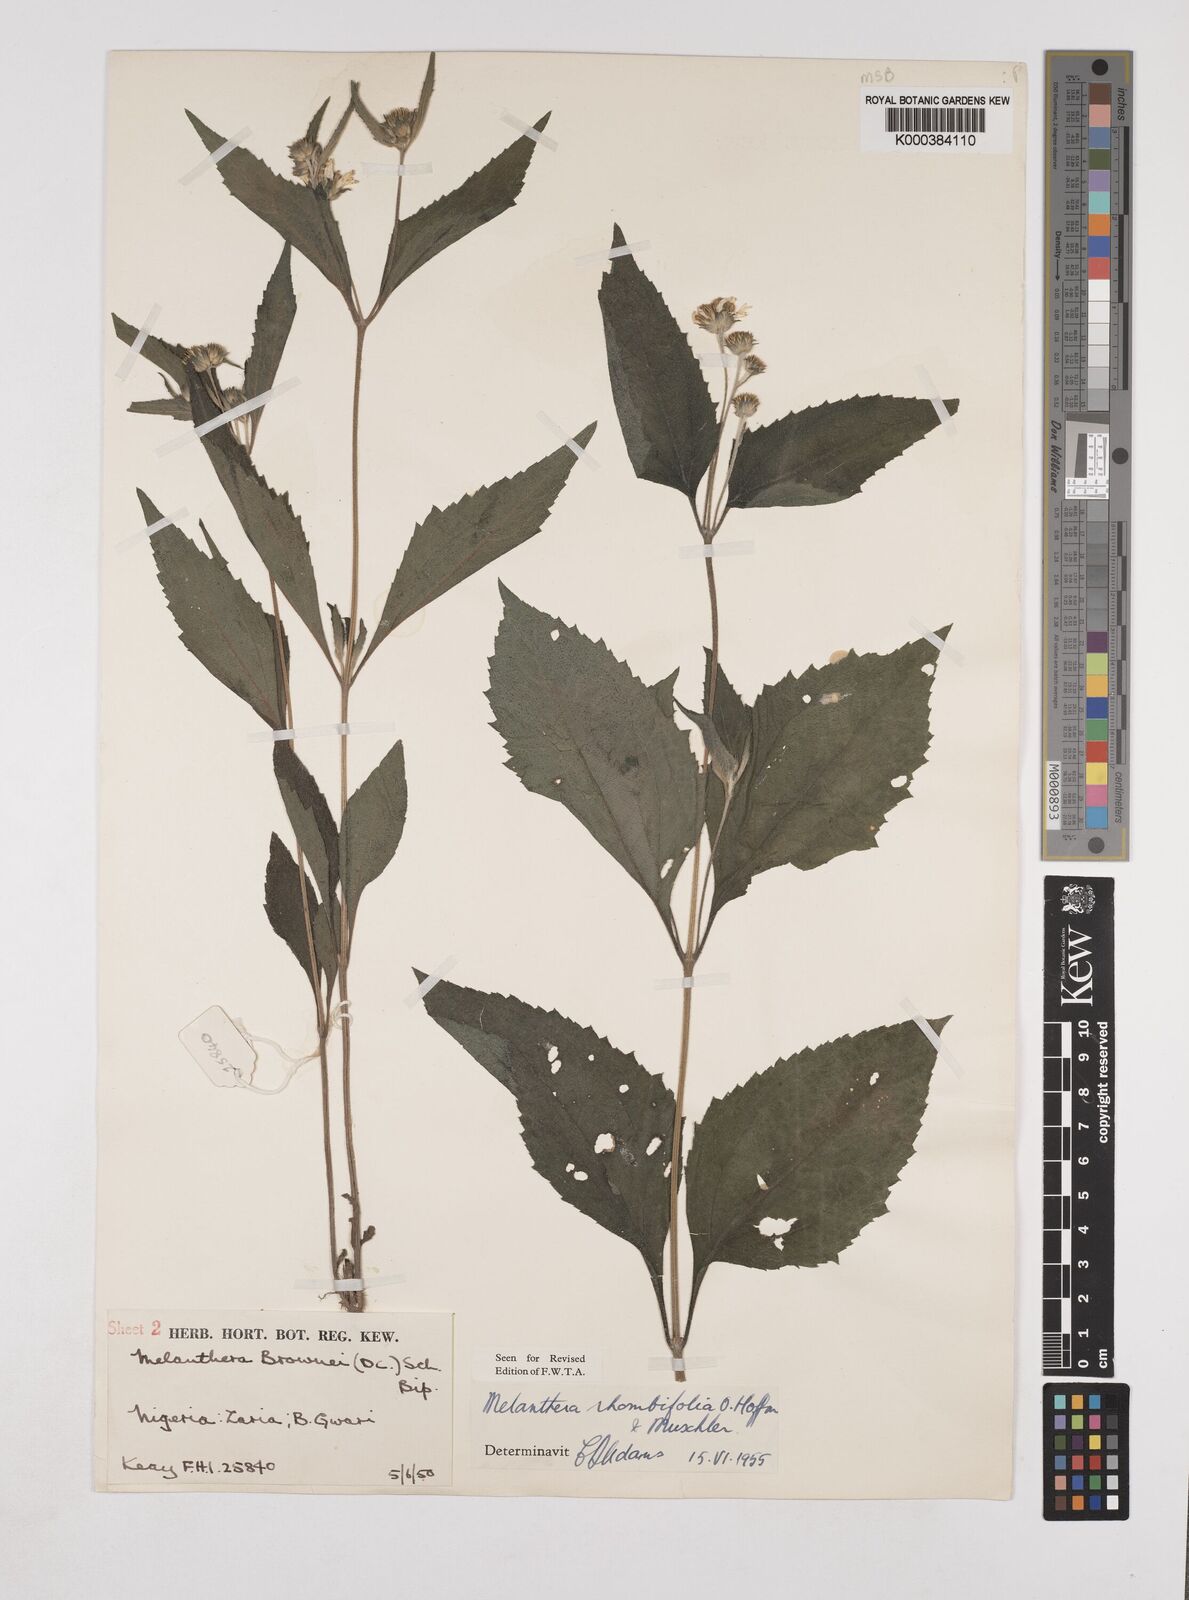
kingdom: Plantae
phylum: Tracheophyta
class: Magnoliopsida
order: Asterales
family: Asteraceae
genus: Lipotriche
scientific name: Lipotriche rhombifolia
